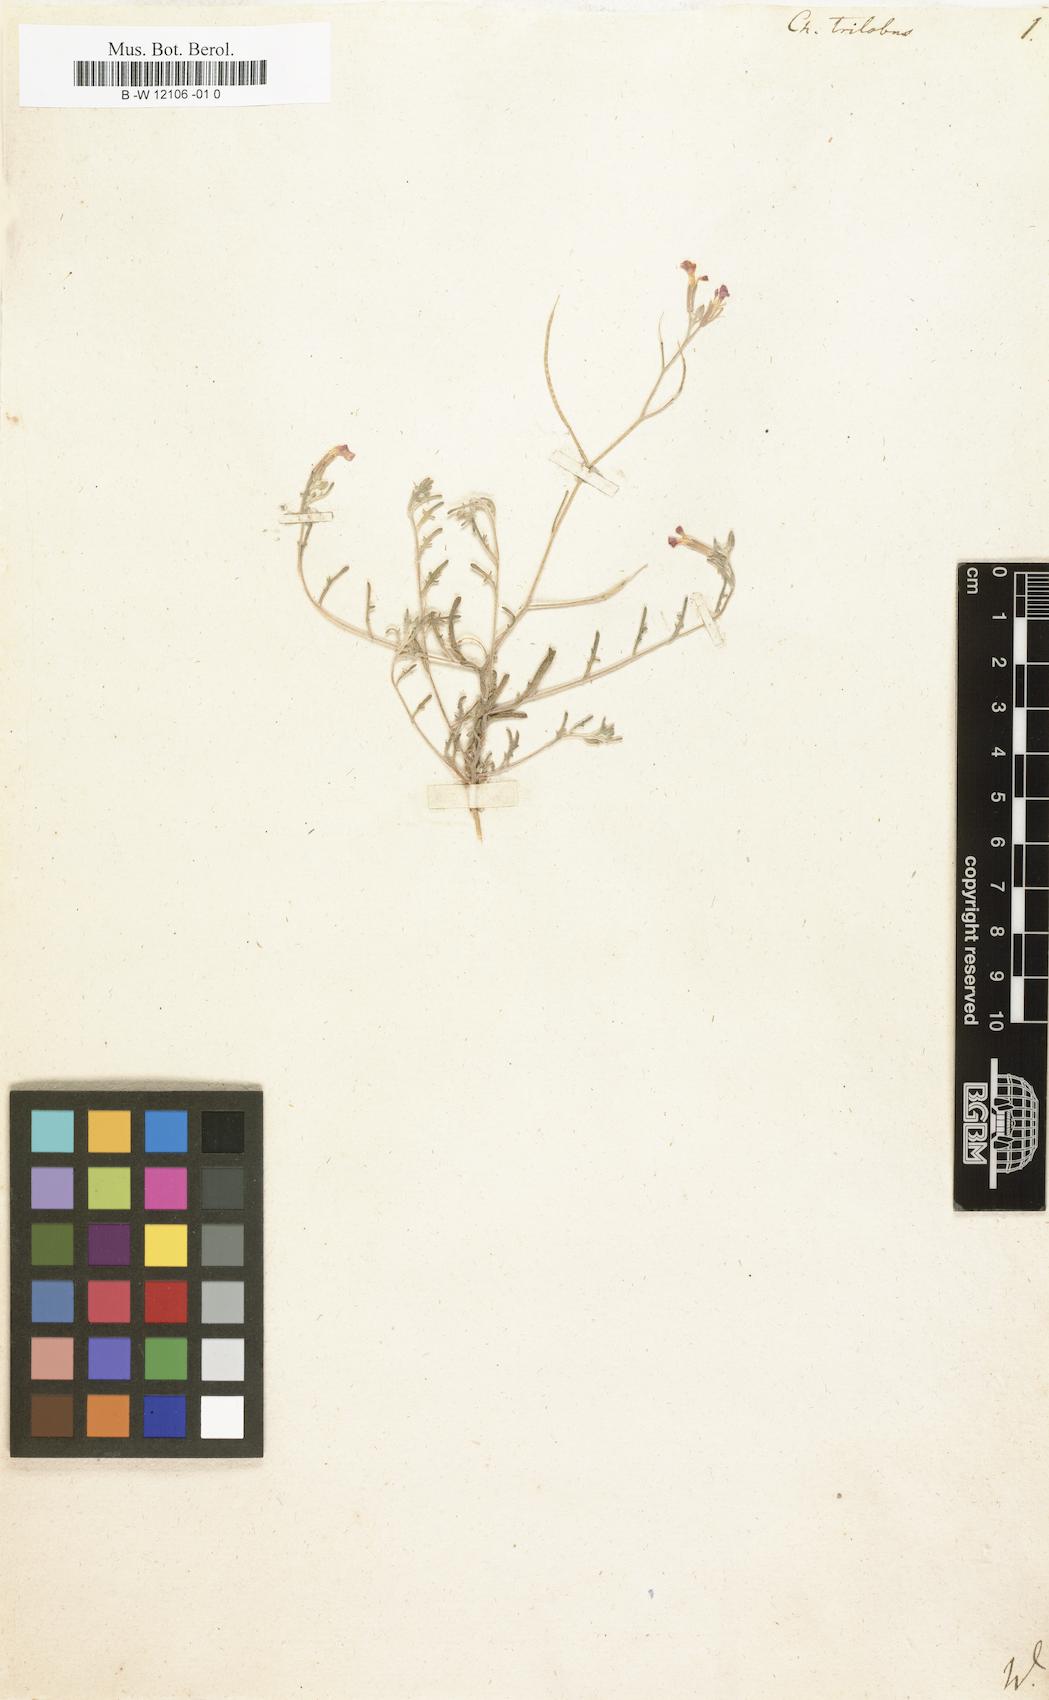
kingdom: Plantae
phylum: Tracheophyta
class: Magnoliopsida
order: Brassicales
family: Brassicaceae
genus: Marcuskochia
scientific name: Marcuskochia triloba
